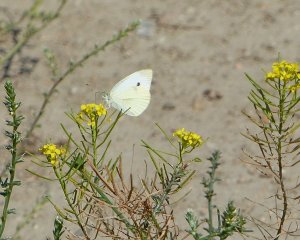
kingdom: Animalia
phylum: Arthropoda
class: Insecta
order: Lepidoptera
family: Pieridae
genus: Pieris
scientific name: Pieris rapae
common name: Cabbage White
